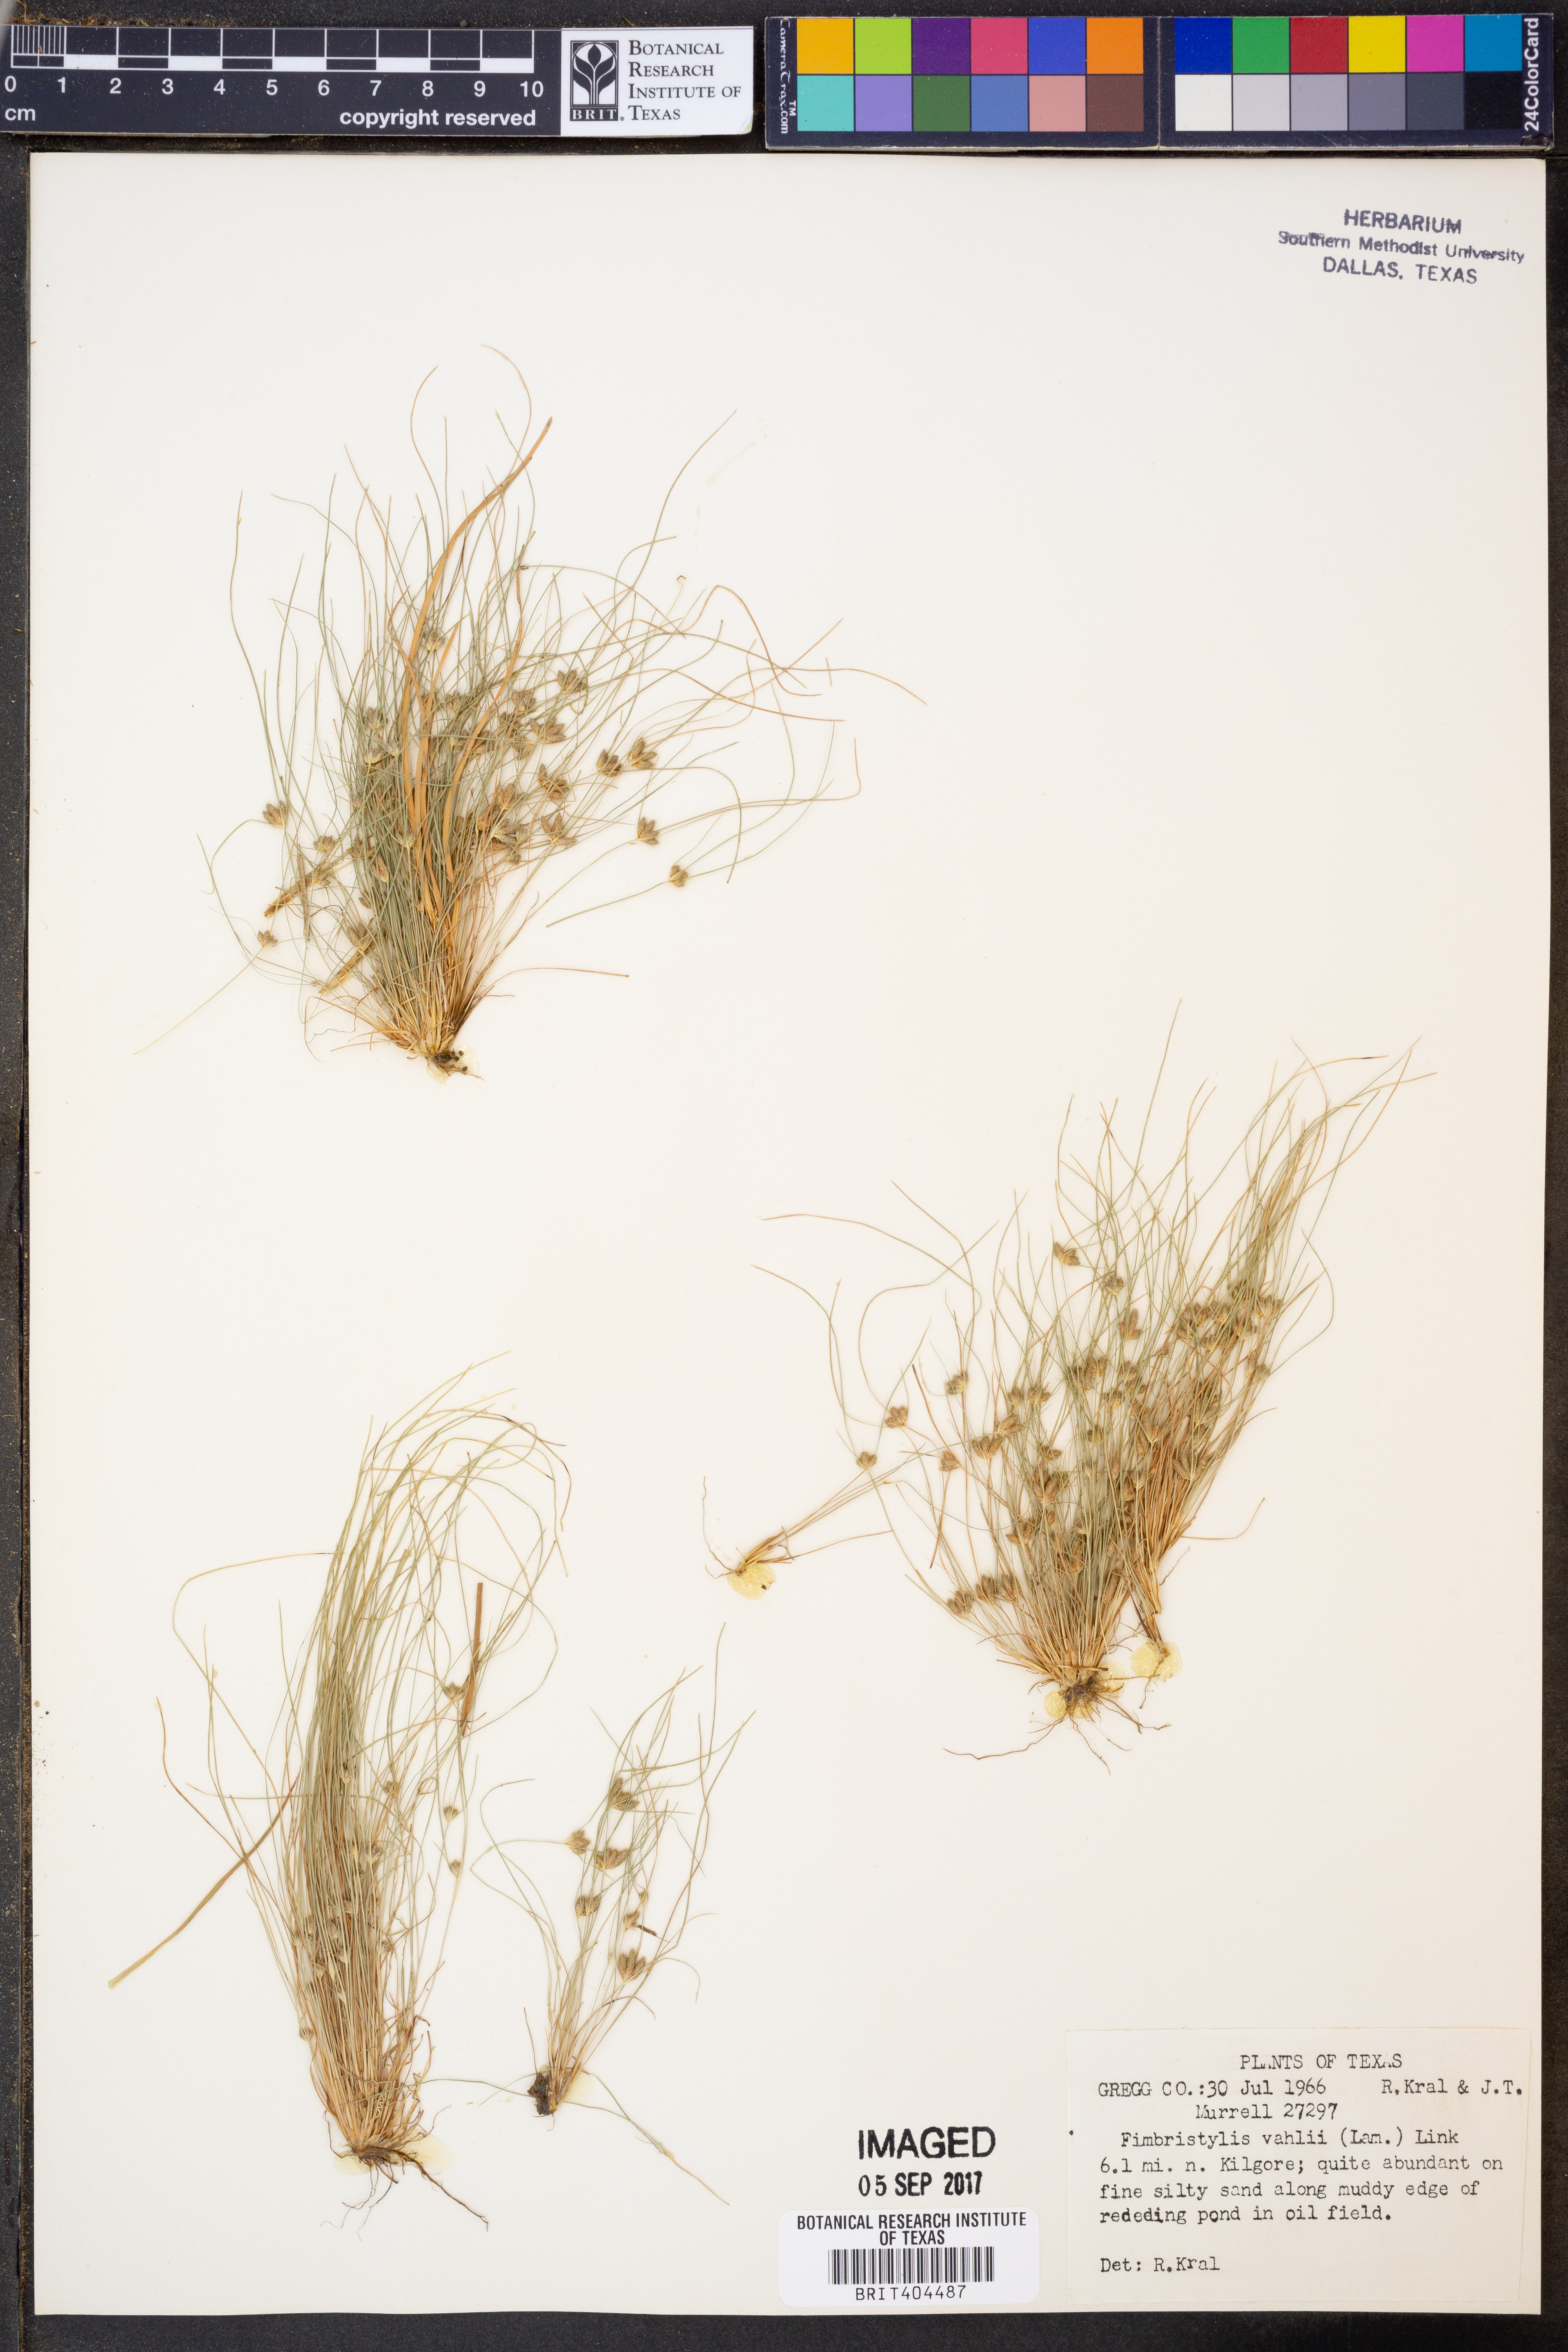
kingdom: Plantae
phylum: Tracheophyta
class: Liliopsida
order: Poales
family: Cyperaceae
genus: Fimbristylis
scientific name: Fimbristylis vahlii
